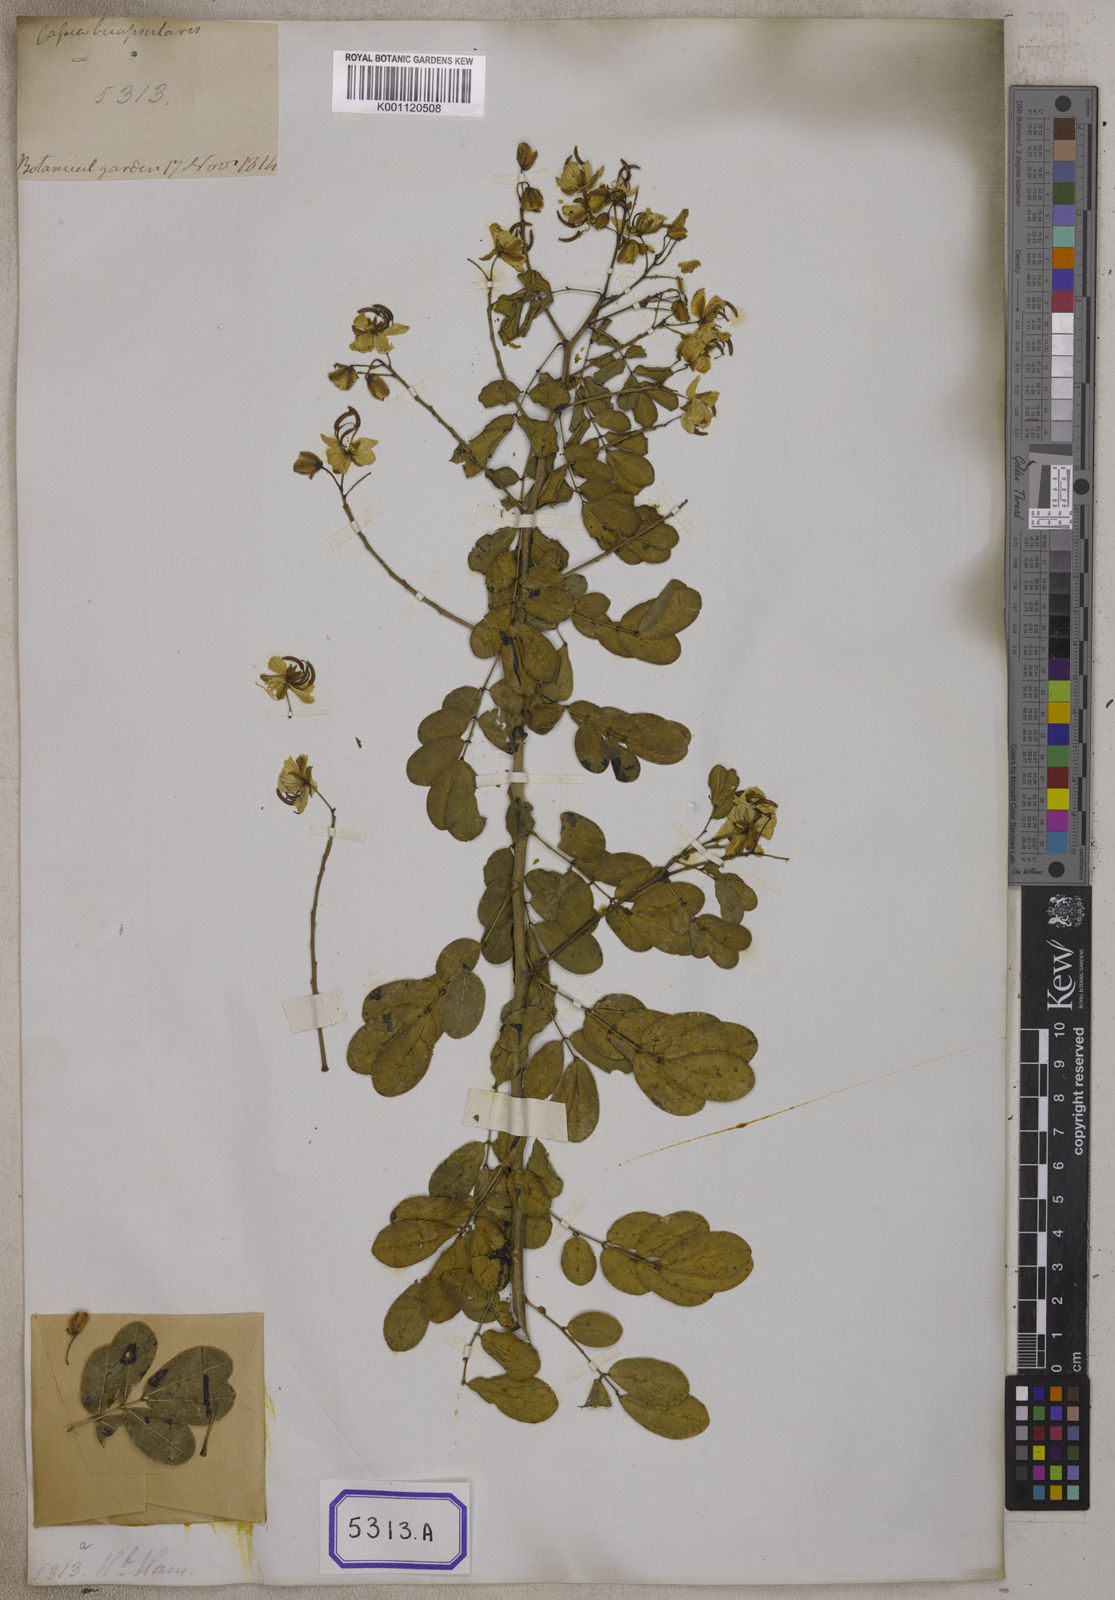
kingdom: Plantae
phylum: Tracheophyta
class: Magnoliopsida
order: Fabales
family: Fabaceae
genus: Senna
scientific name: Senna bicapsularis
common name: Christmasbush
